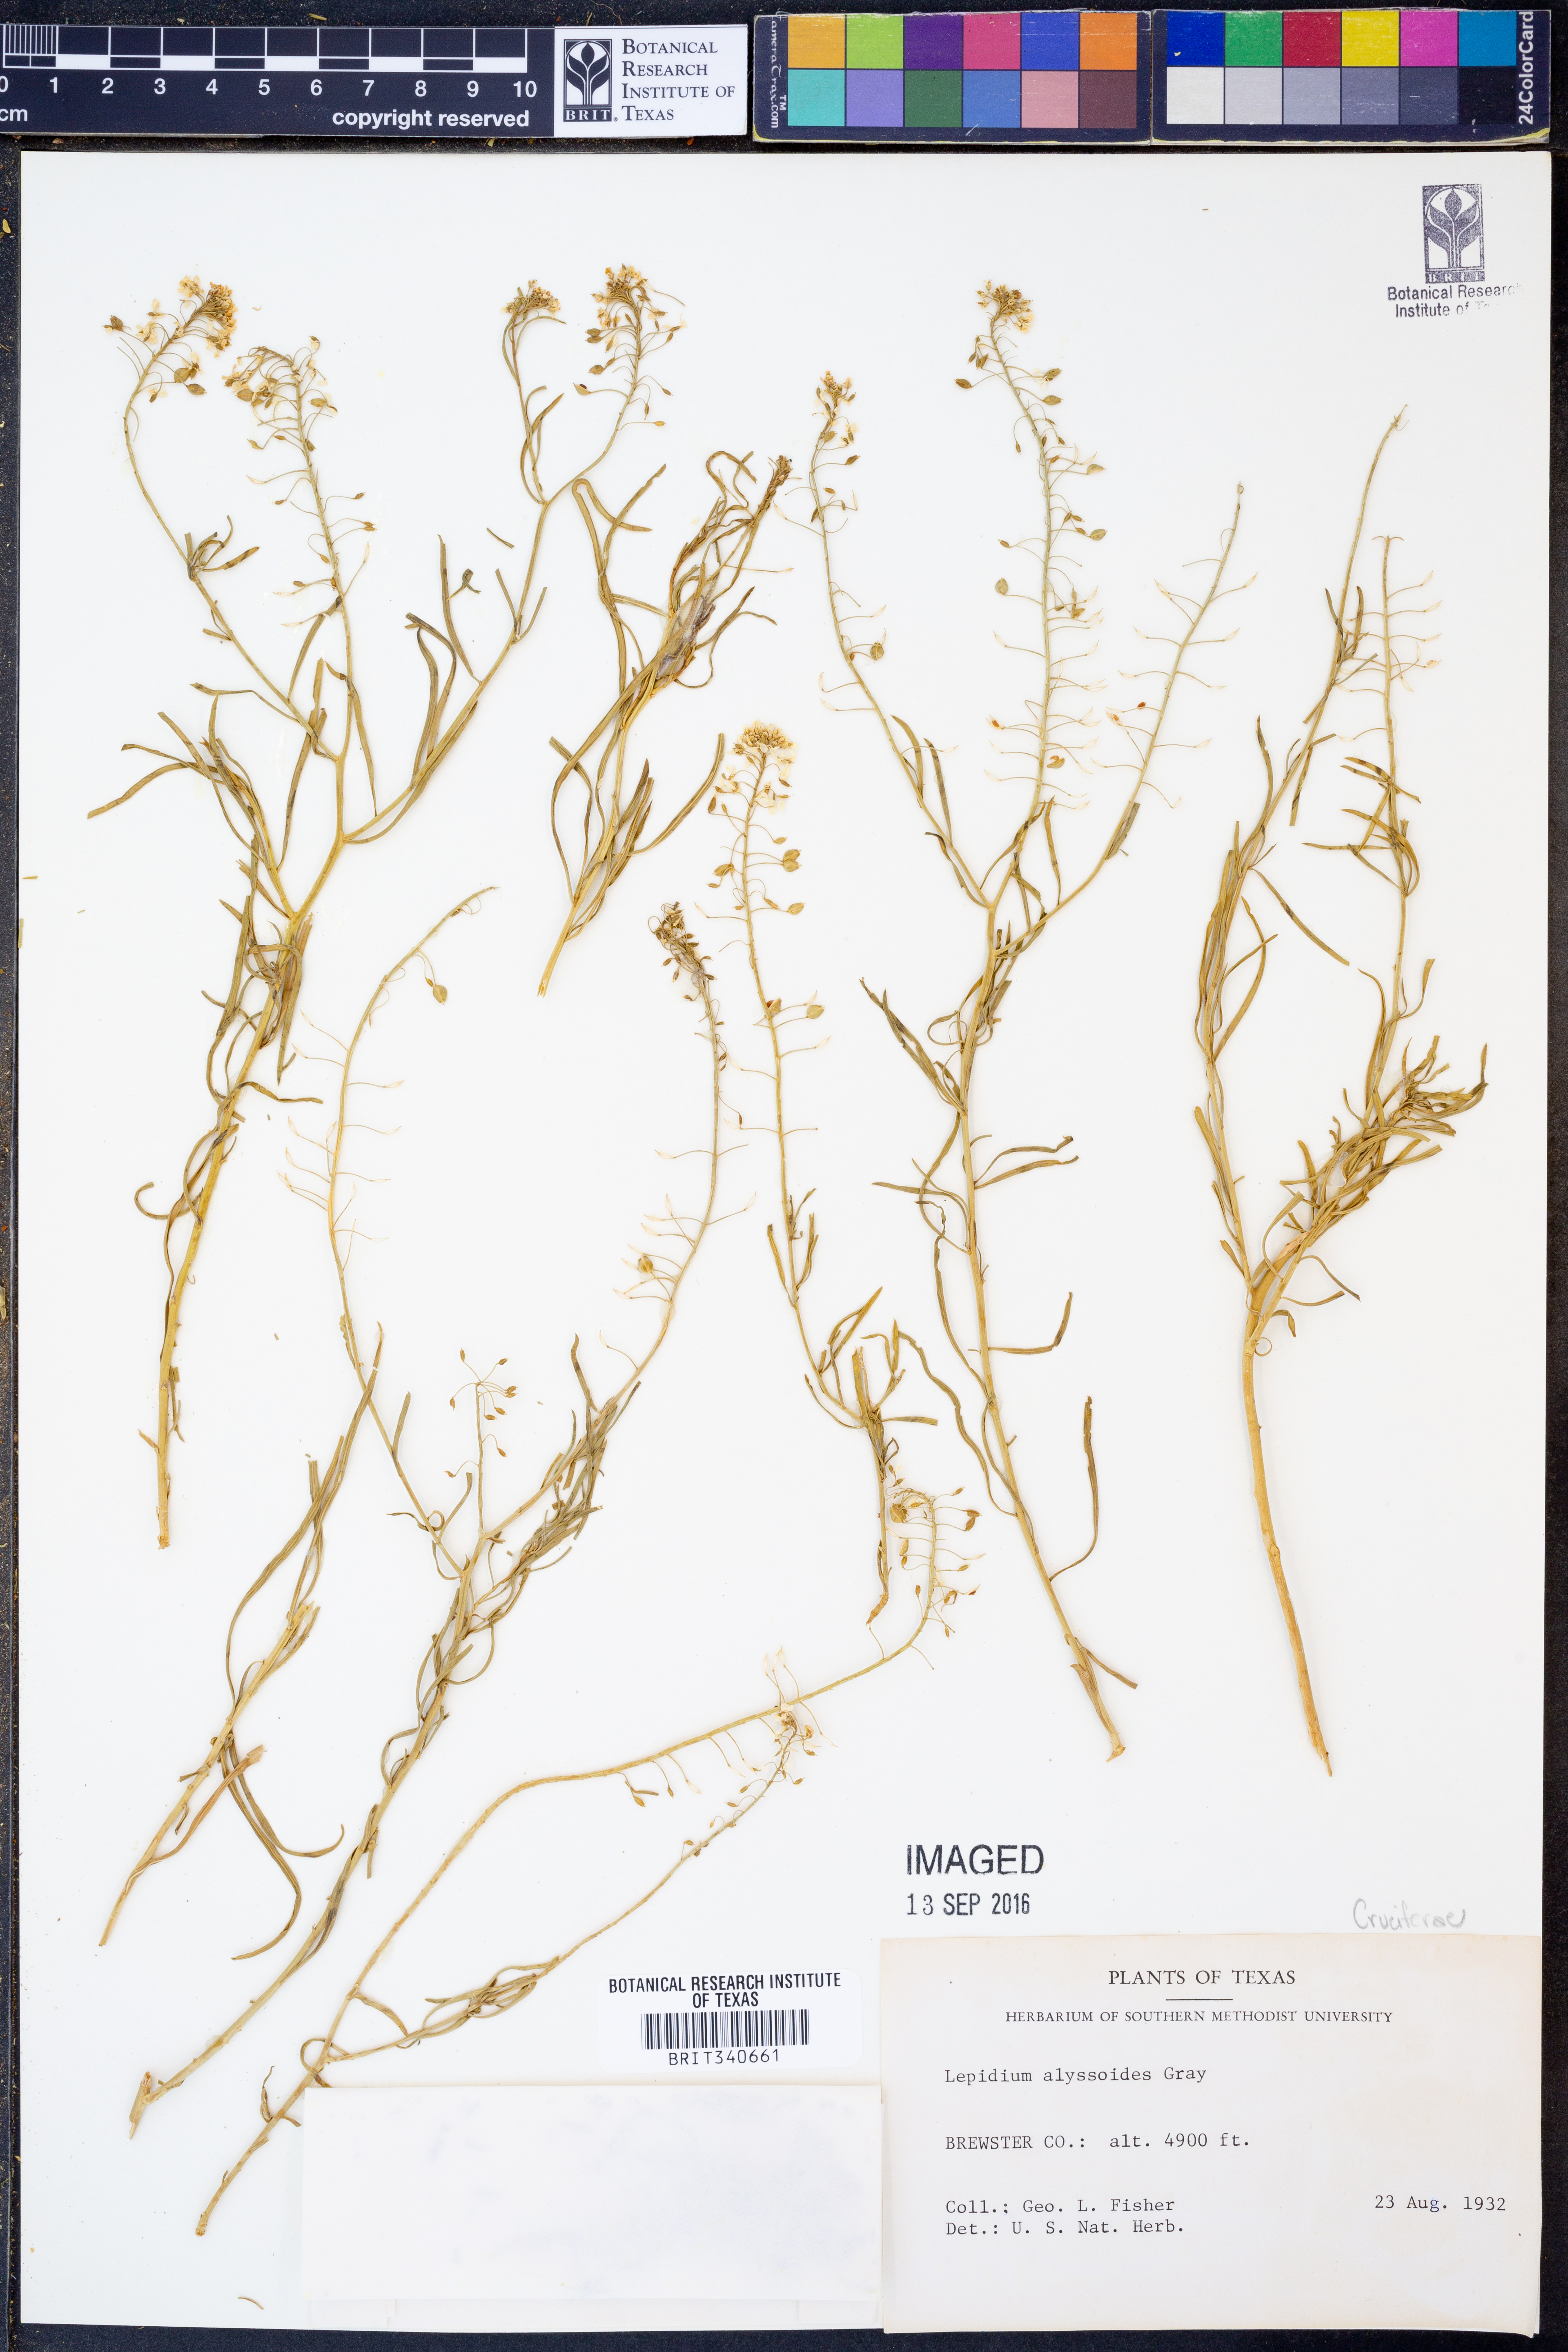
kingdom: Plantae
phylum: Tracheophyta
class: Magnoliopsida
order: Brassicales
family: Brassicaceae
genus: Lepidium
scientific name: Lepidium alyssoides
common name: Mesa pepperweed
